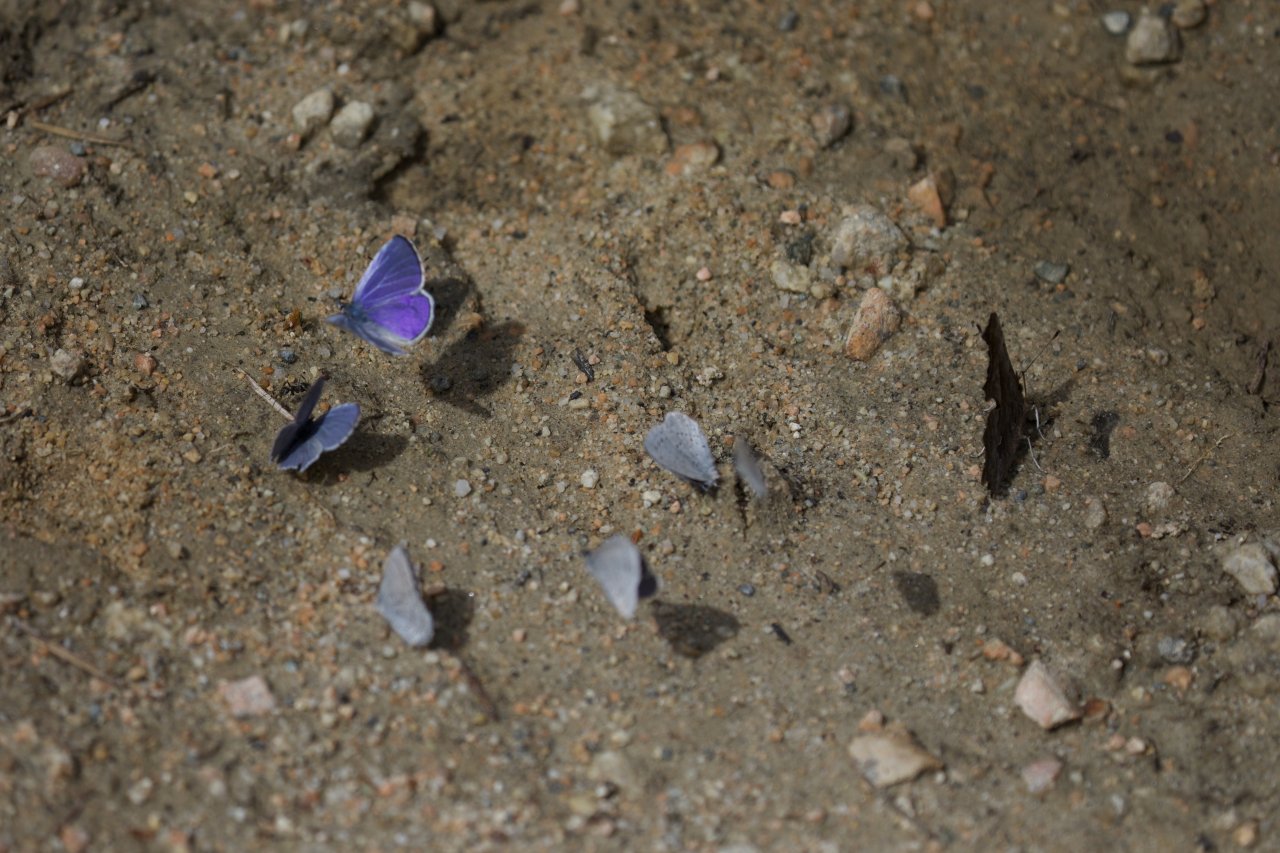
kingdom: Animalia
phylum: Arthropoda
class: Insecta
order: Lepidoptera
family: Lycaenidae
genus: Celastrina
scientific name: Celastrina ladon
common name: Echo Azure
